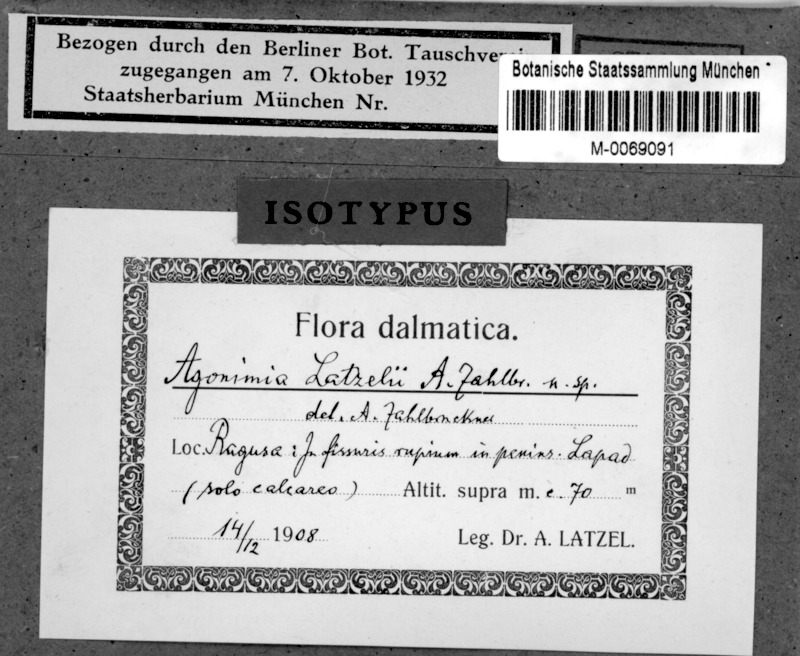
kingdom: Fungi
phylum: Ascomycota
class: Eurotiomycetes
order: Verrucariales
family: Verrucariaceae
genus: Agonimia
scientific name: Agonimia tristicula
